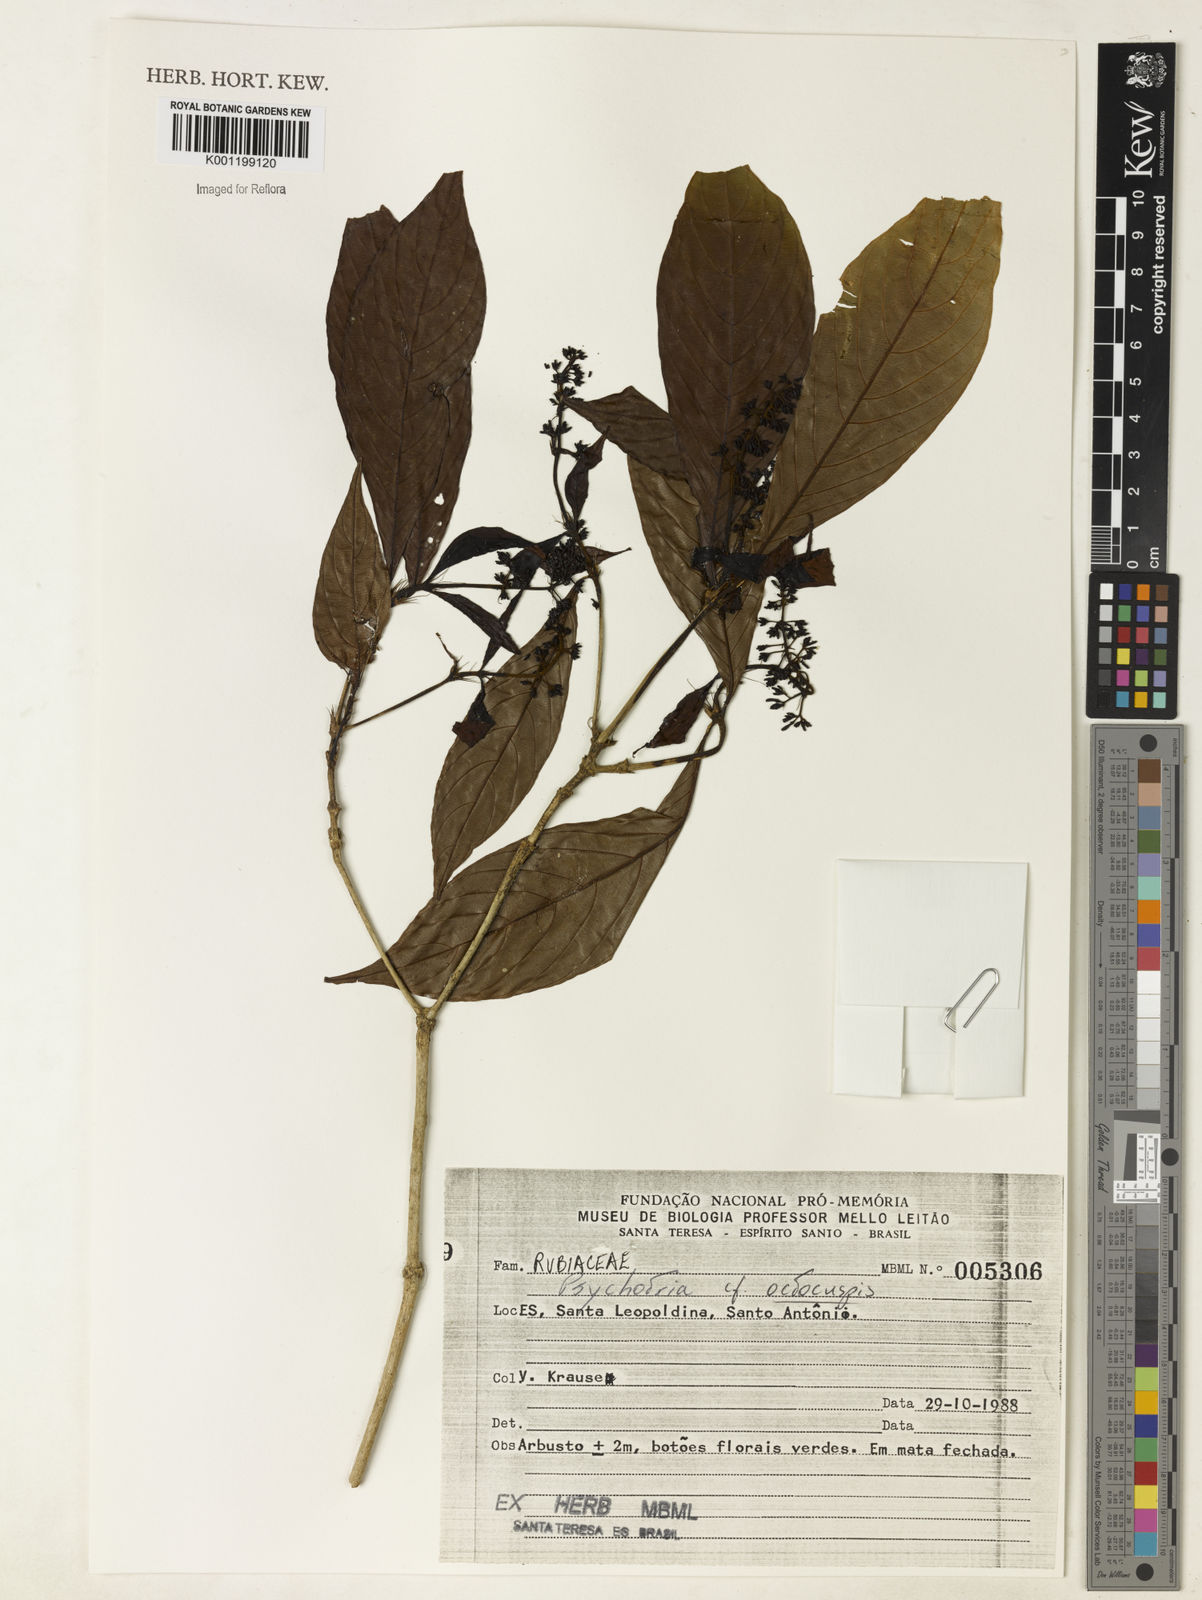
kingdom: Plantae
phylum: Tracheophyta
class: Magnoliopsida
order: Gentianales
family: Rubiaceae
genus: Psychotria
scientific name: Psychotria
